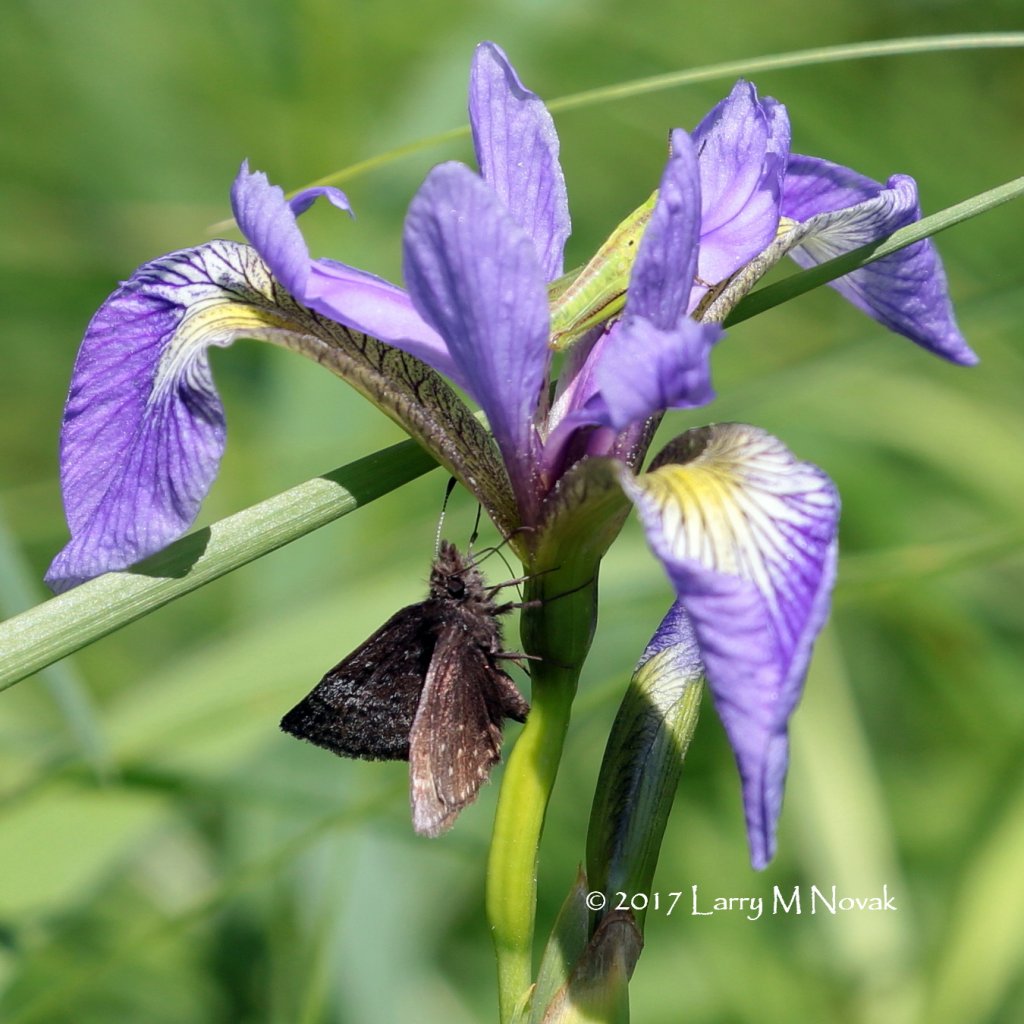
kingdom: Animalia
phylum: Arthropoda
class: Insecta
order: Lepidoptera
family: Hesperiidae
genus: Erynnis
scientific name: Erynnis icelus
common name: Dreamy Duskywing
